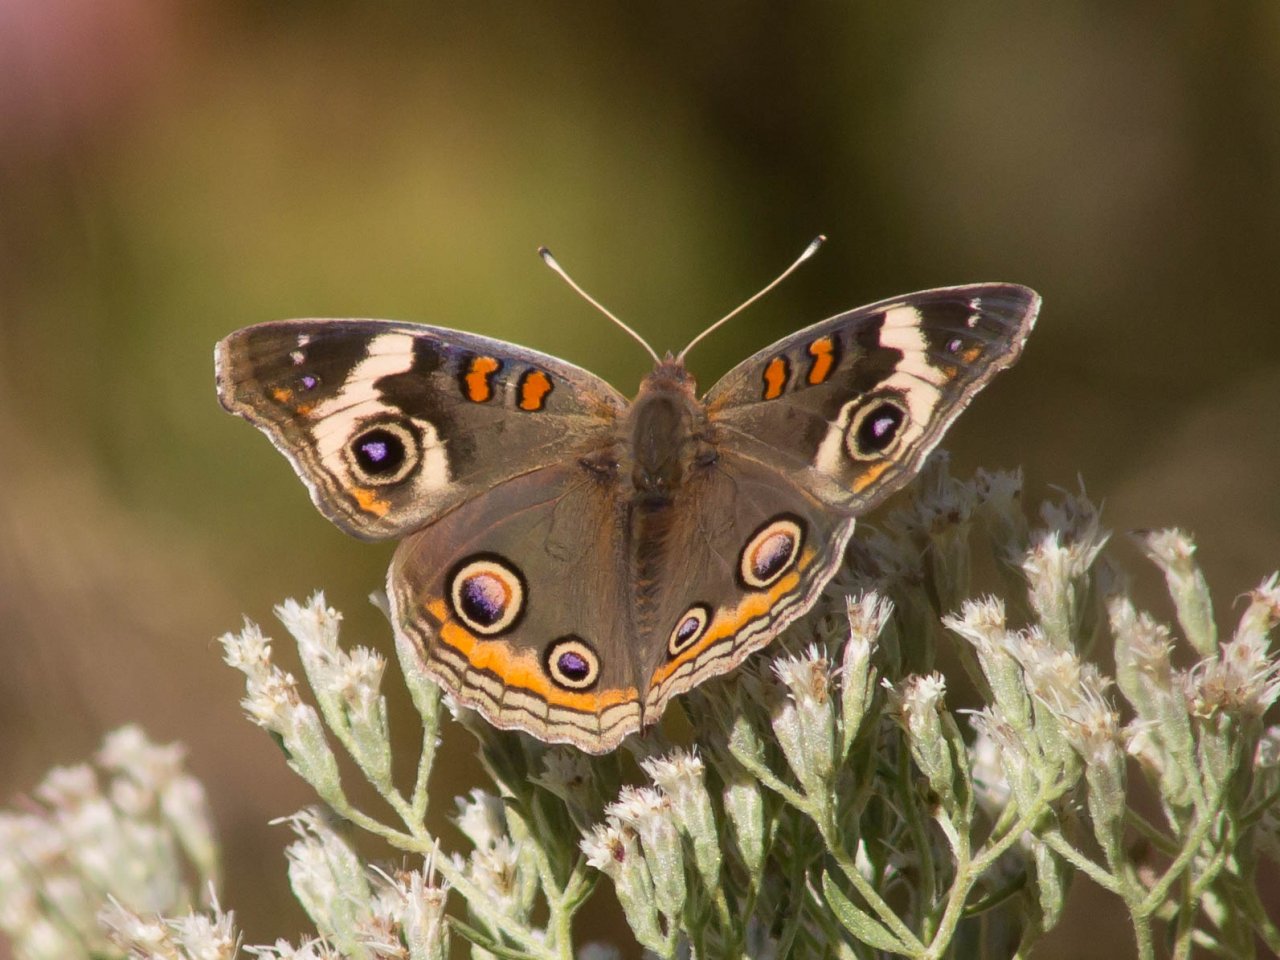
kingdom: Animalia
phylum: Arthropoda
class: Insecta
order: Lepidoptera
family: Nymphalidae
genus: Junonia
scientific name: Junonia coenia
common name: Common Buckeye
